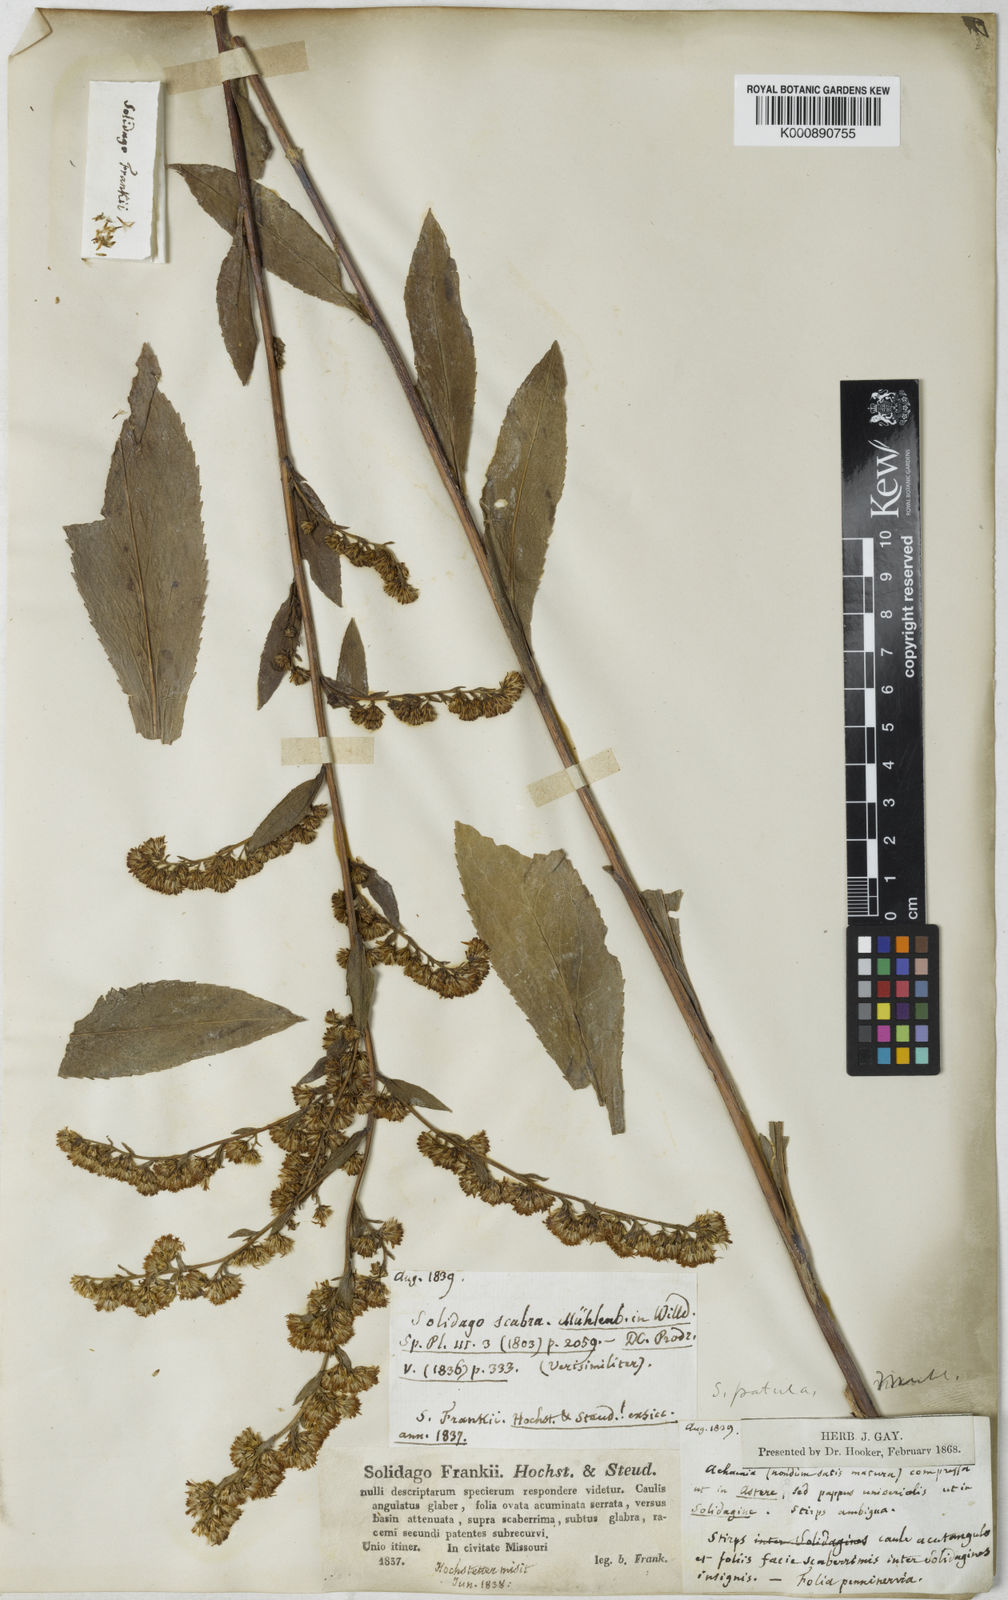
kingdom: Plantae
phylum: Tracheophyta
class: Magnoliopsida
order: Asterales
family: Asteraceae
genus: Solidago
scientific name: Solidago
